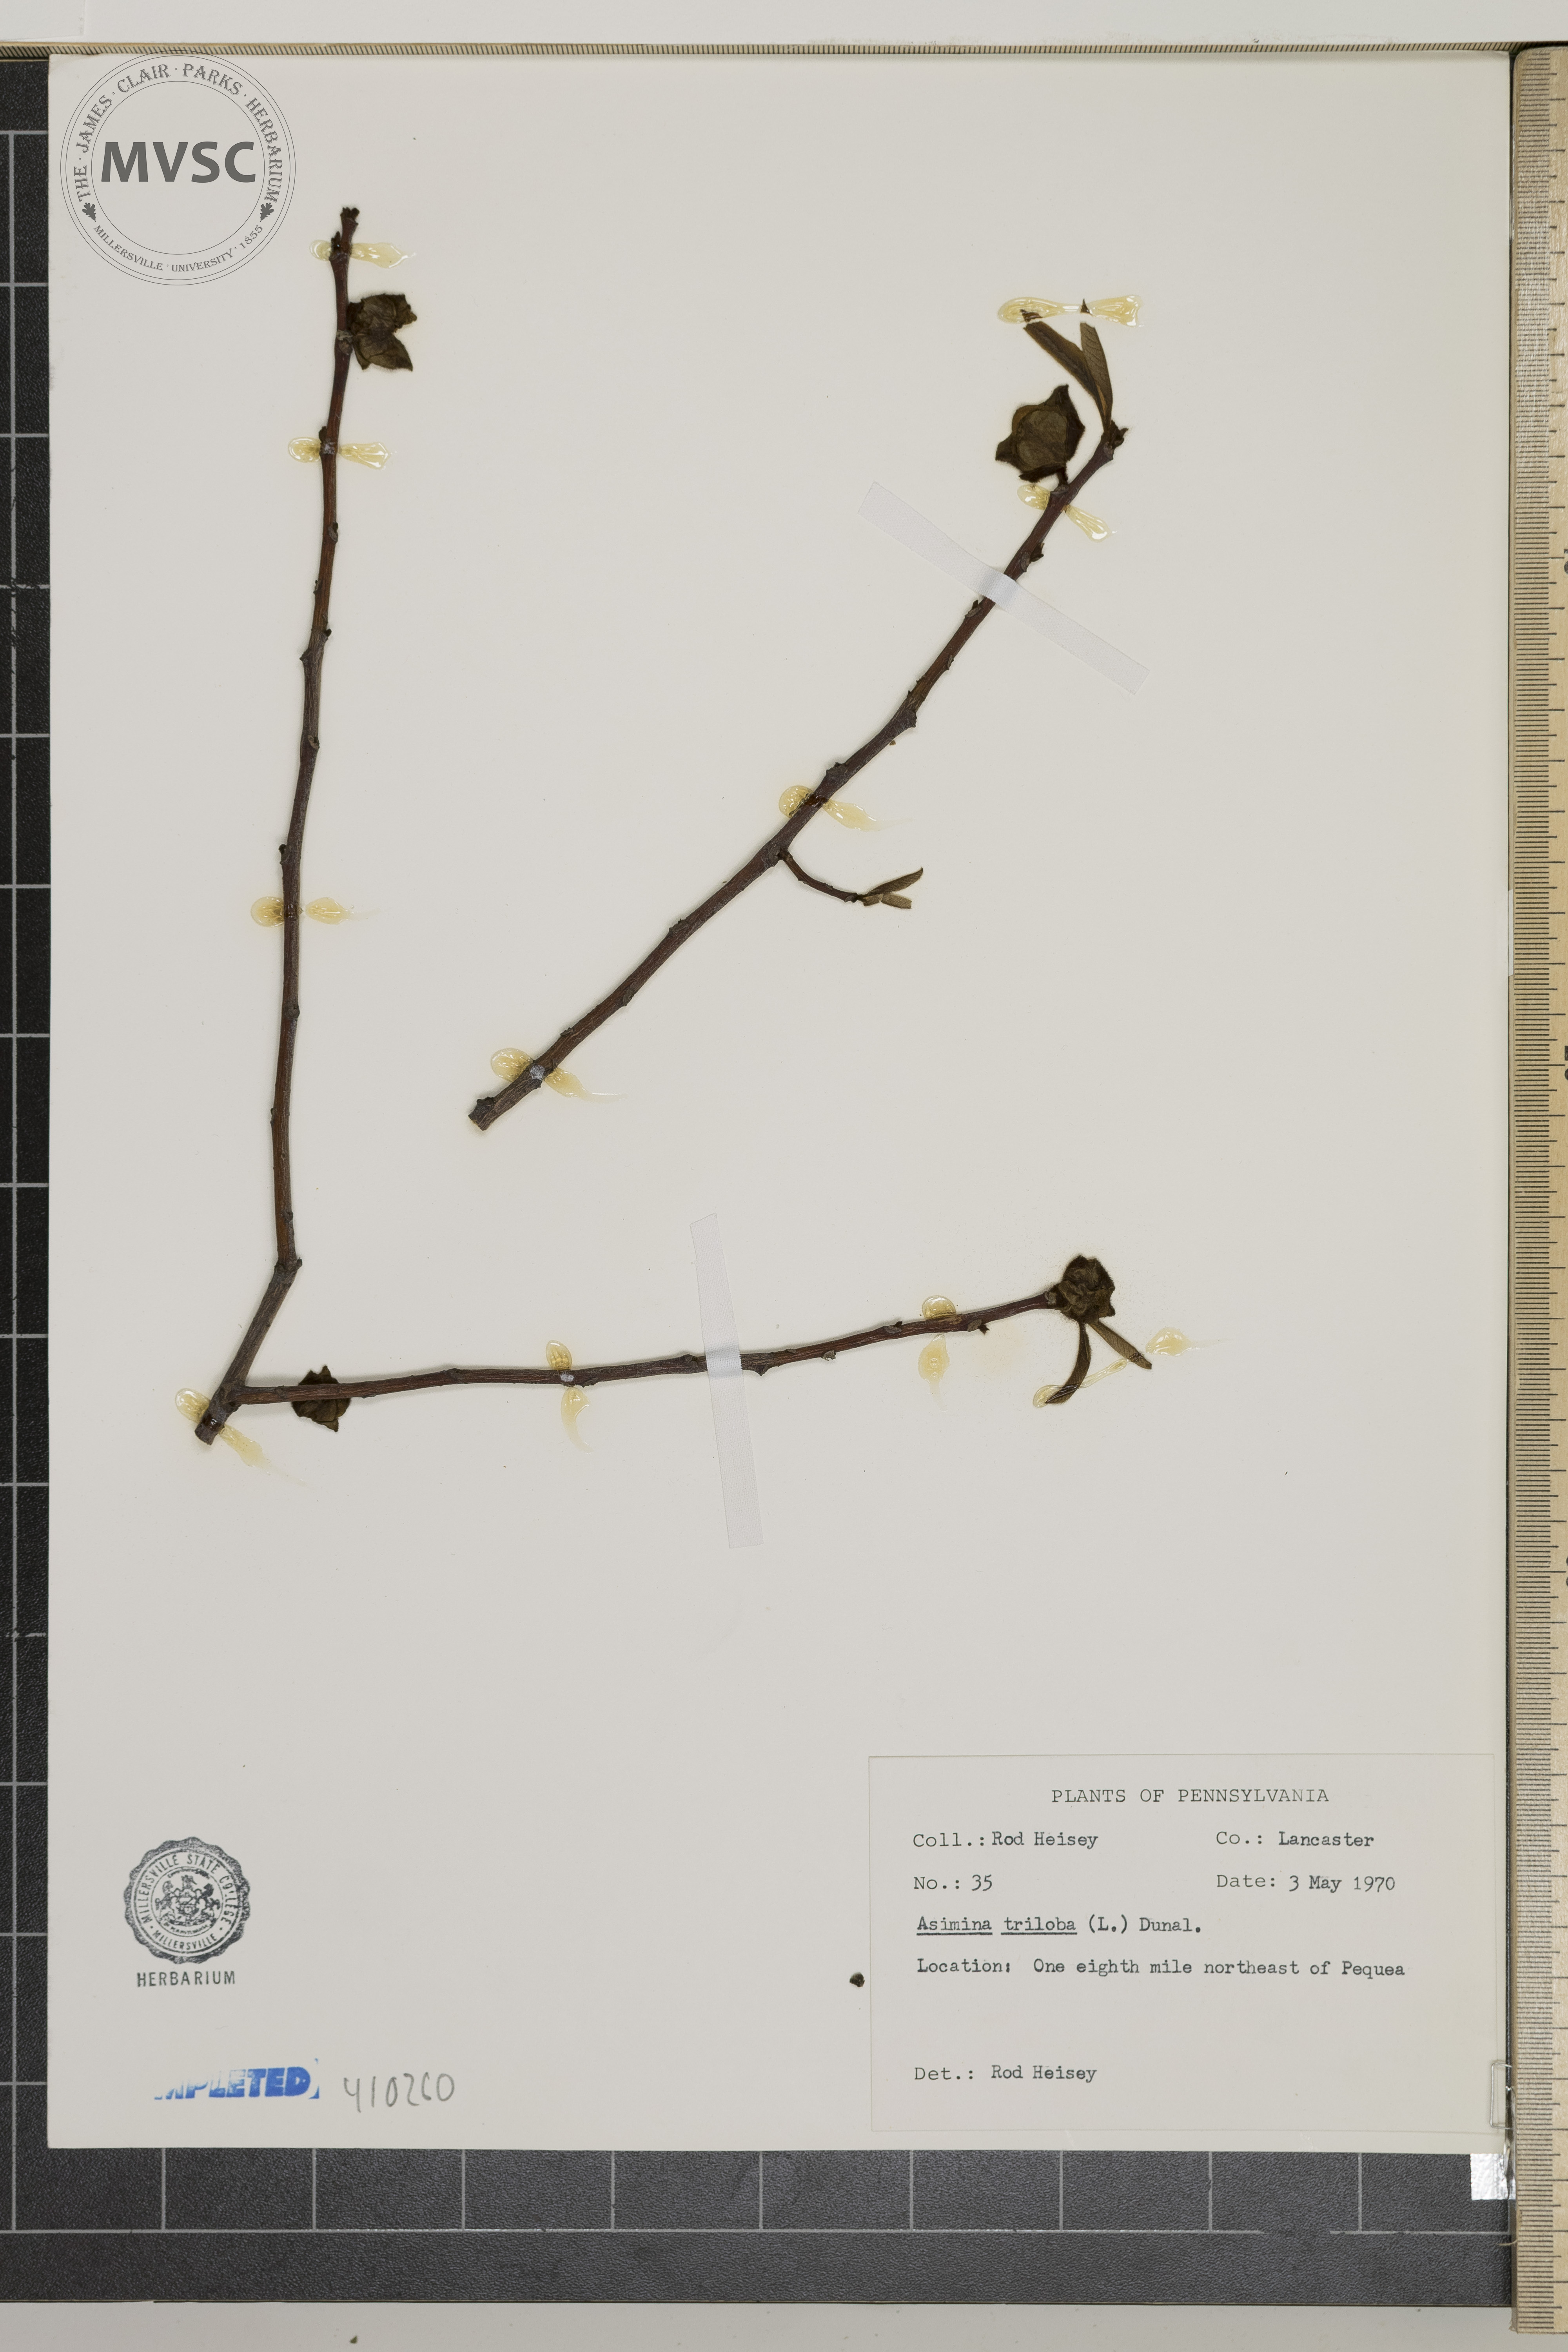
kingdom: Plantae
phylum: Tracheophyta
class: Magnoliopsida
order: Magnoliales
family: Annonaceae
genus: Asimina
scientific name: Asimina triloba
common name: Dog-banana
